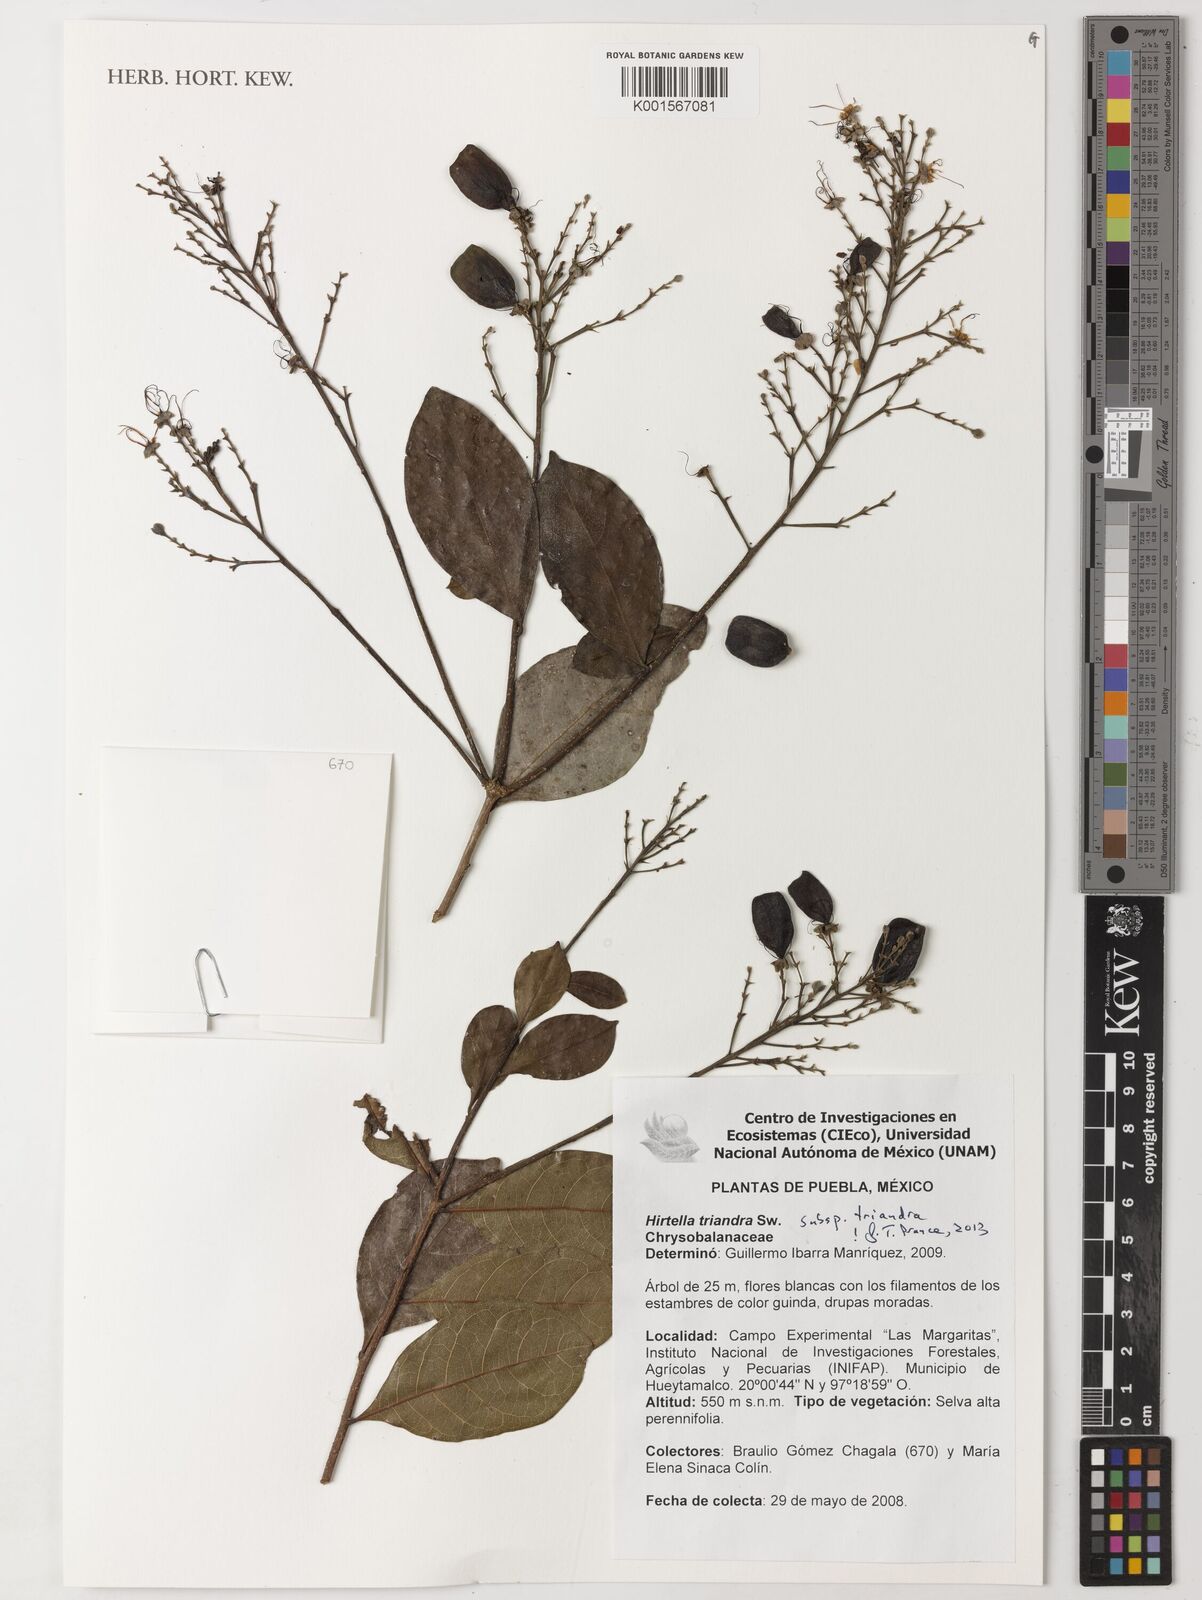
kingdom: Plantae
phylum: Tracheophyta
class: Magnoliopsida
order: Malpighiales
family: Chrysobalanaceae
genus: Hirtella
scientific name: Hirtella triandra
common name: Hairy plum
